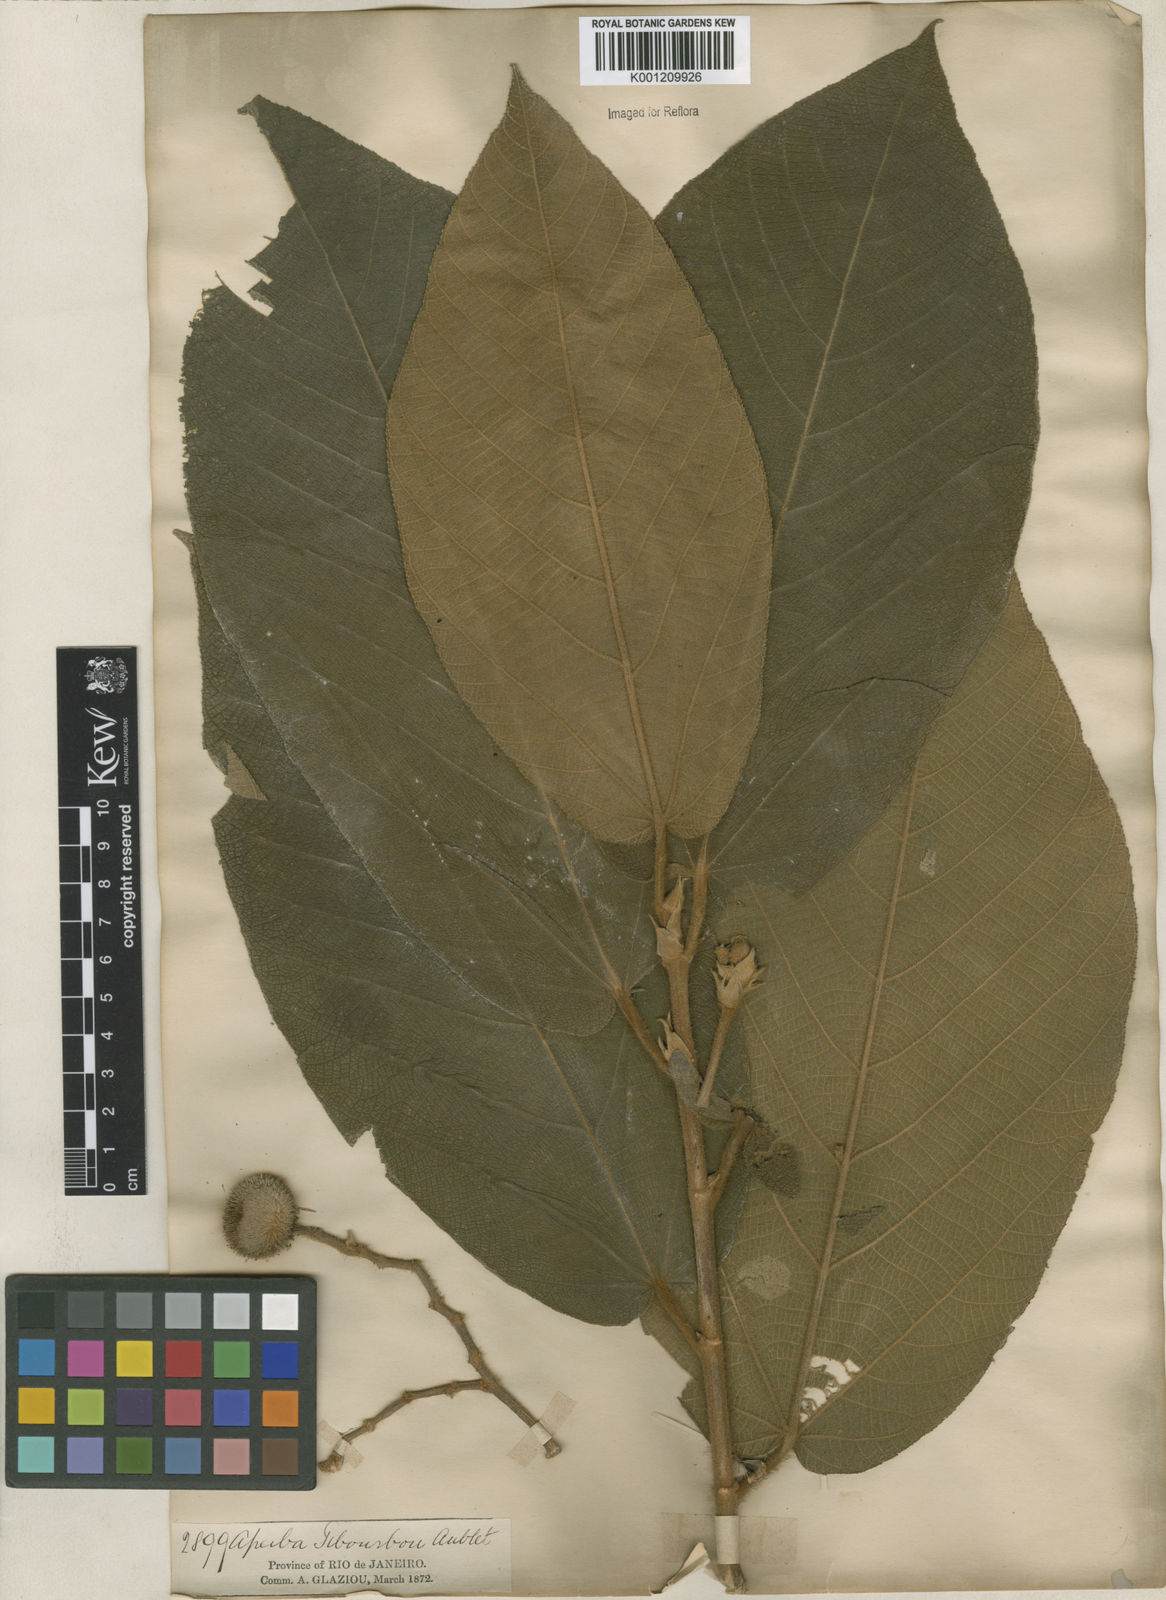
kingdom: Plantae
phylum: Tracheophyta
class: Magnoliopsida
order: Malvales
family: Malvaceae
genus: Apeiba
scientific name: Apeiba tibourbou
